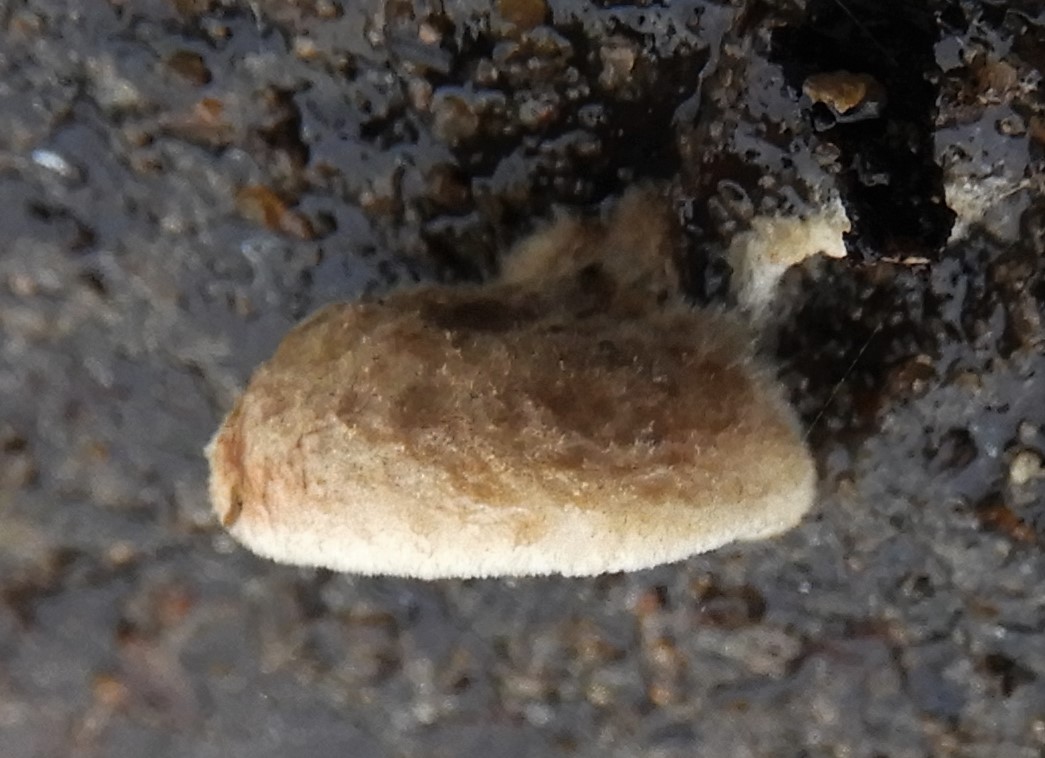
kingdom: Plantae
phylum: Bryophyta
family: Agaricomycetidae
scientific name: Agaricomycetidae
